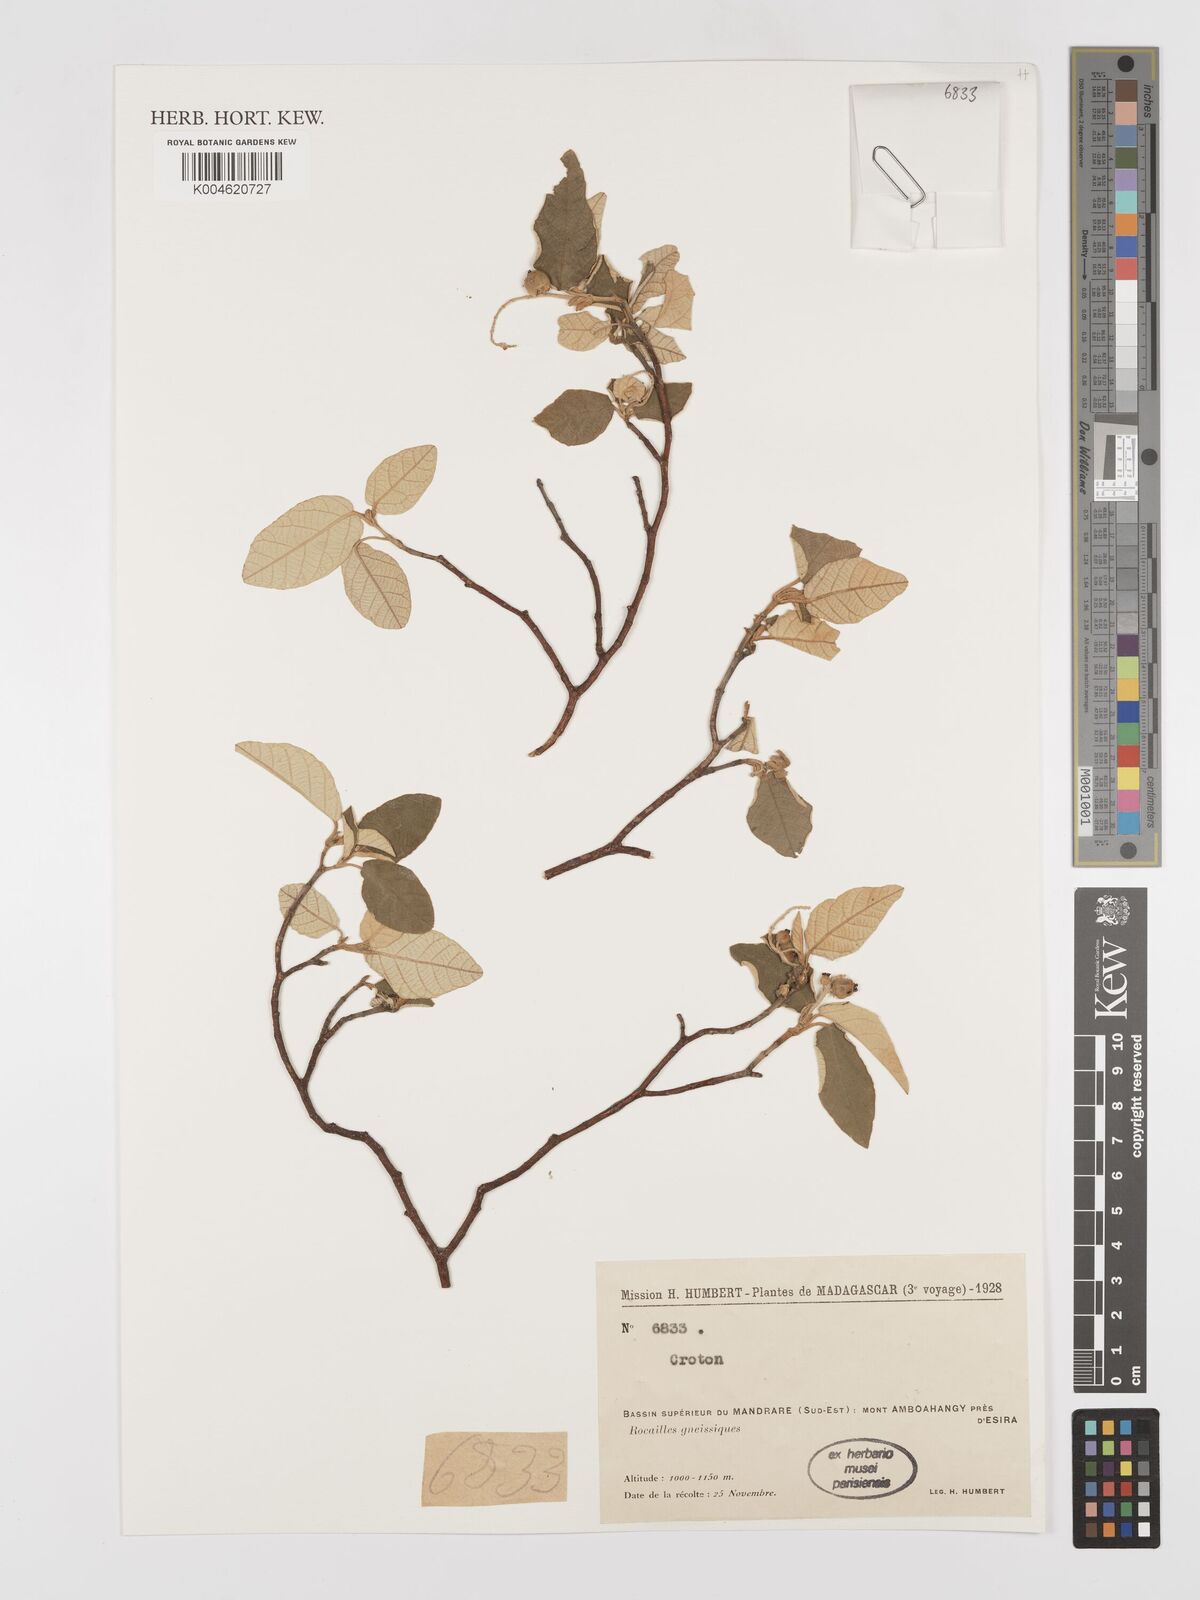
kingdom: Plantae
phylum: Tracheophyta
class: Magnoliopsida
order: Malpighiales
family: Euphorbiaceae
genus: Croton
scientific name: Croton
